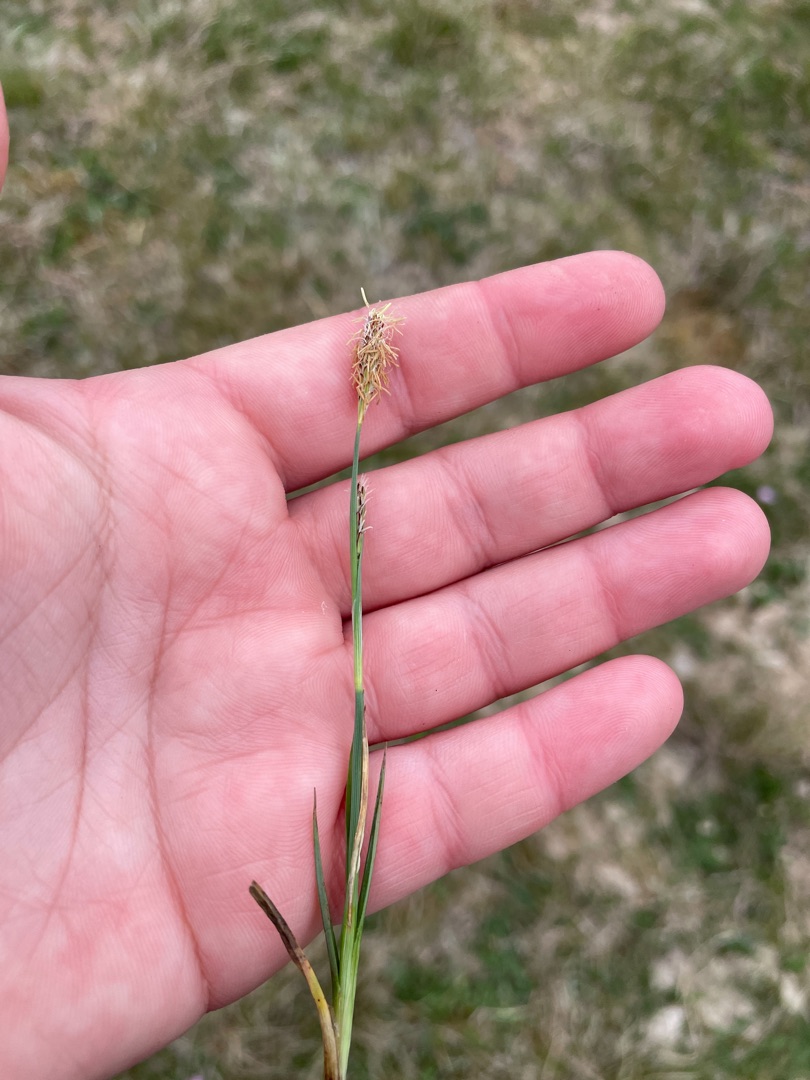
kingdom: Plantae
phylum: Tracheophyta
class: Liliopsida
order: Poales
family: Cyperaceae
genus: Carex
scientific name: Carex flacca
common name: Blågrøn star
